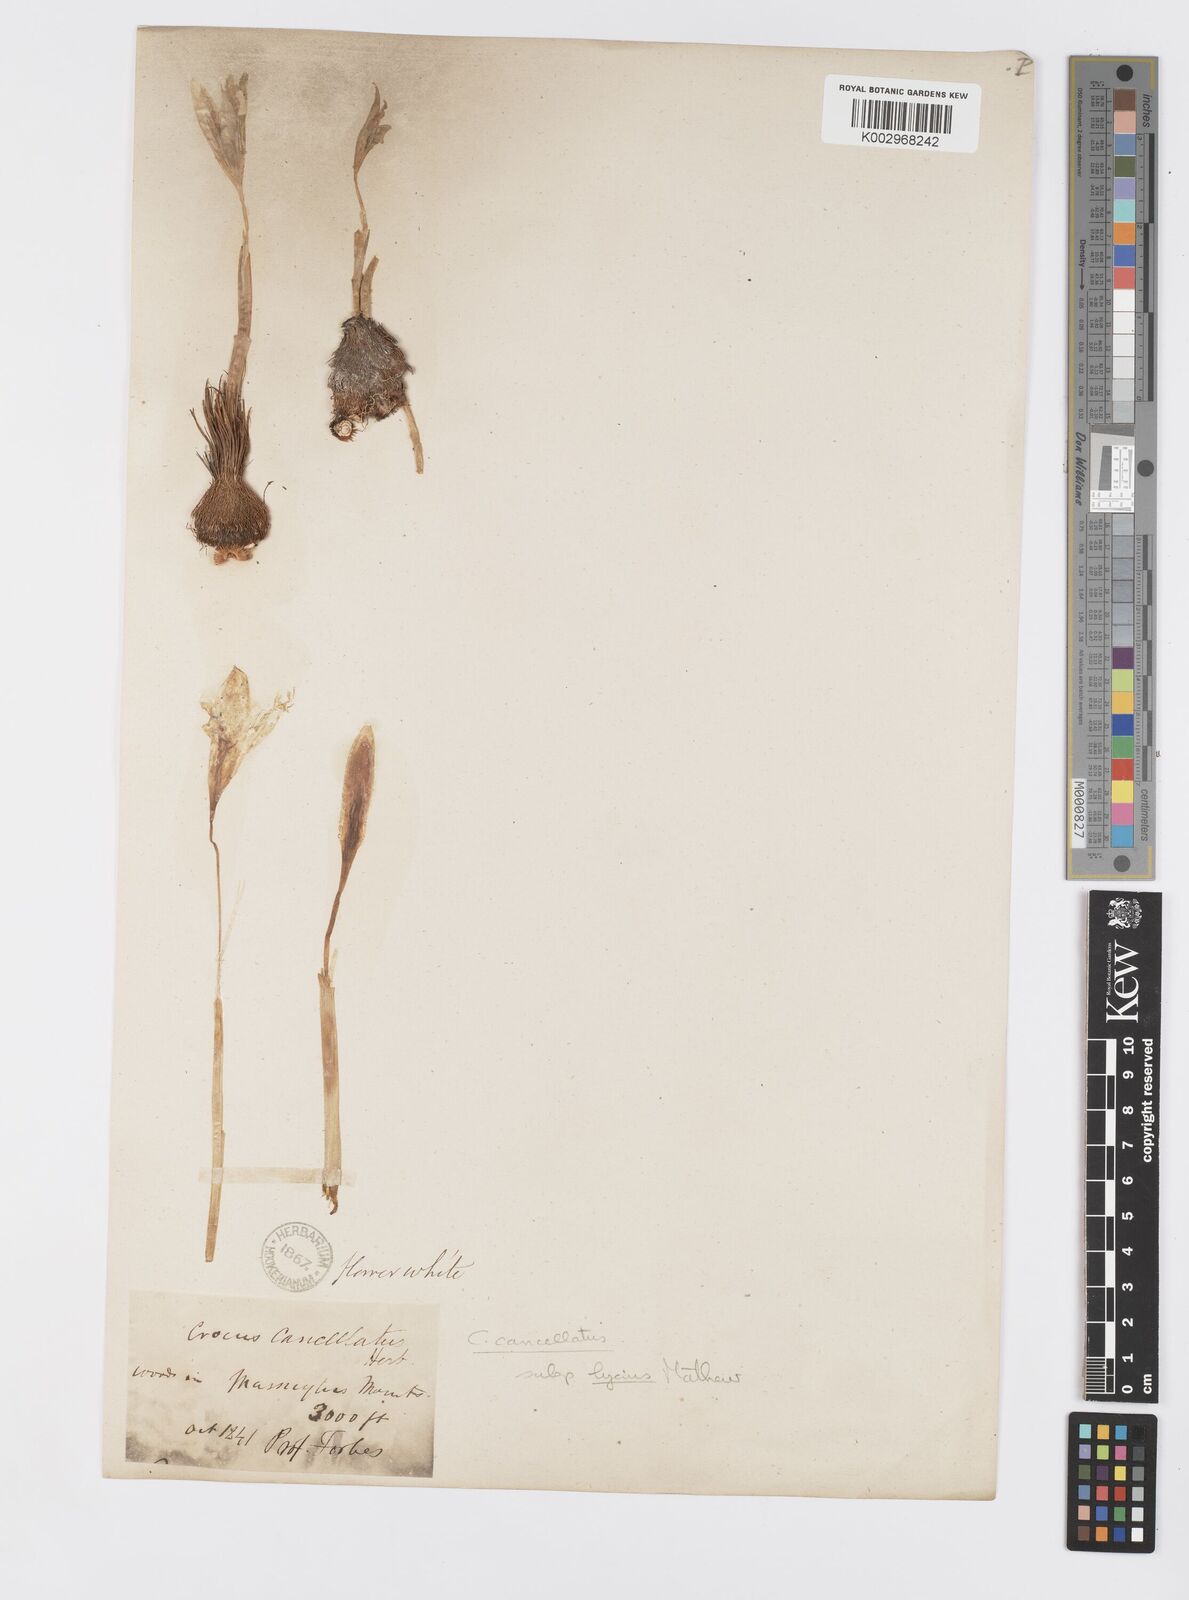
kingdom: Plantae
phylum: Tracheophyta
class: Liliopsida
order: Asparagales
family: Iridaceae
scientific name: Iridaceae
